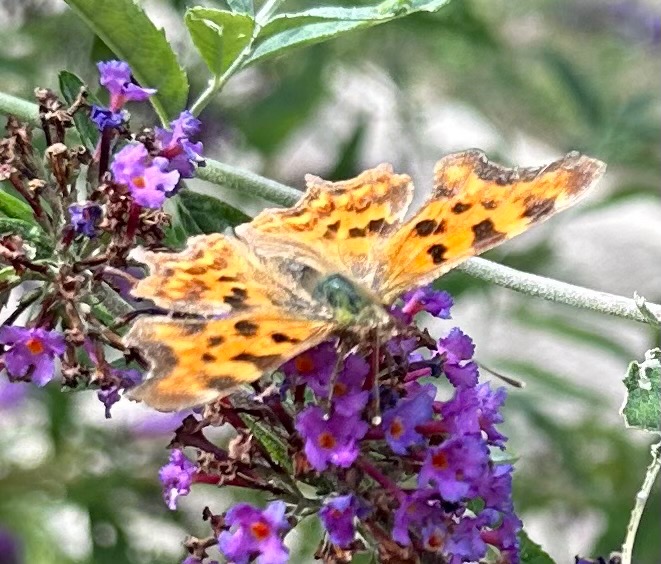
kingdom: Animalia
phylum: Arthropoda
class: Insecta
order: Lepidoptera
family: Nymphalidae
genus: Polygonia
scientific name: Polygonia c-album
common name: Det hvide C
